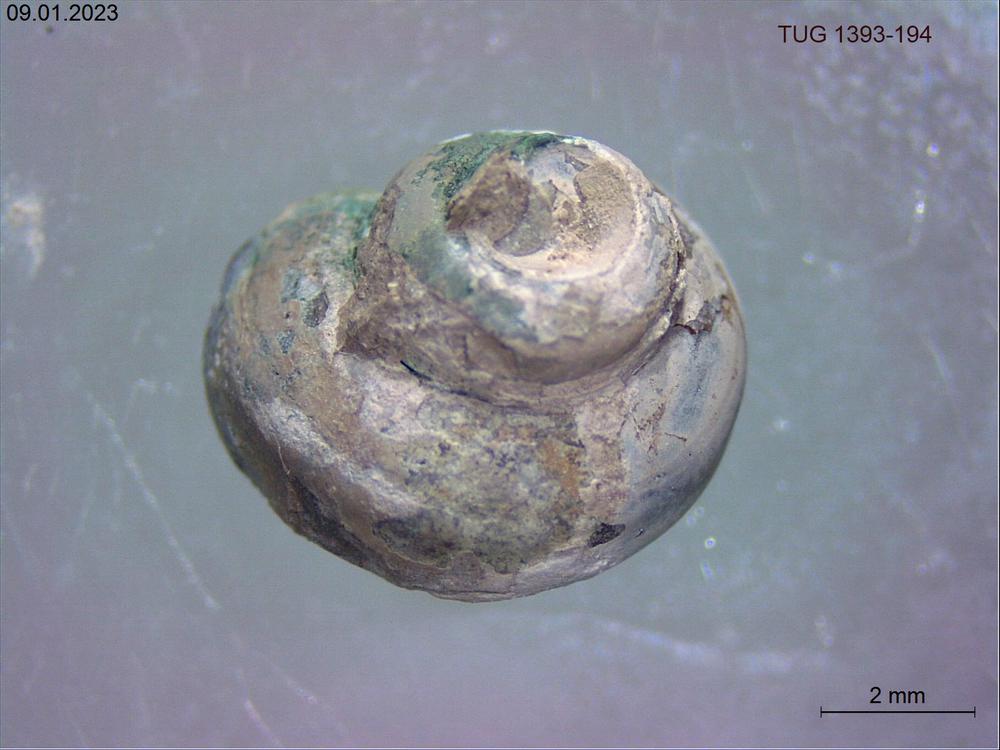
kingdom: Animalia
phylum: Mollusca
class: Gastropoda
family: Lophospiridae
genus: Proturritella
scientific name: Proturritella
